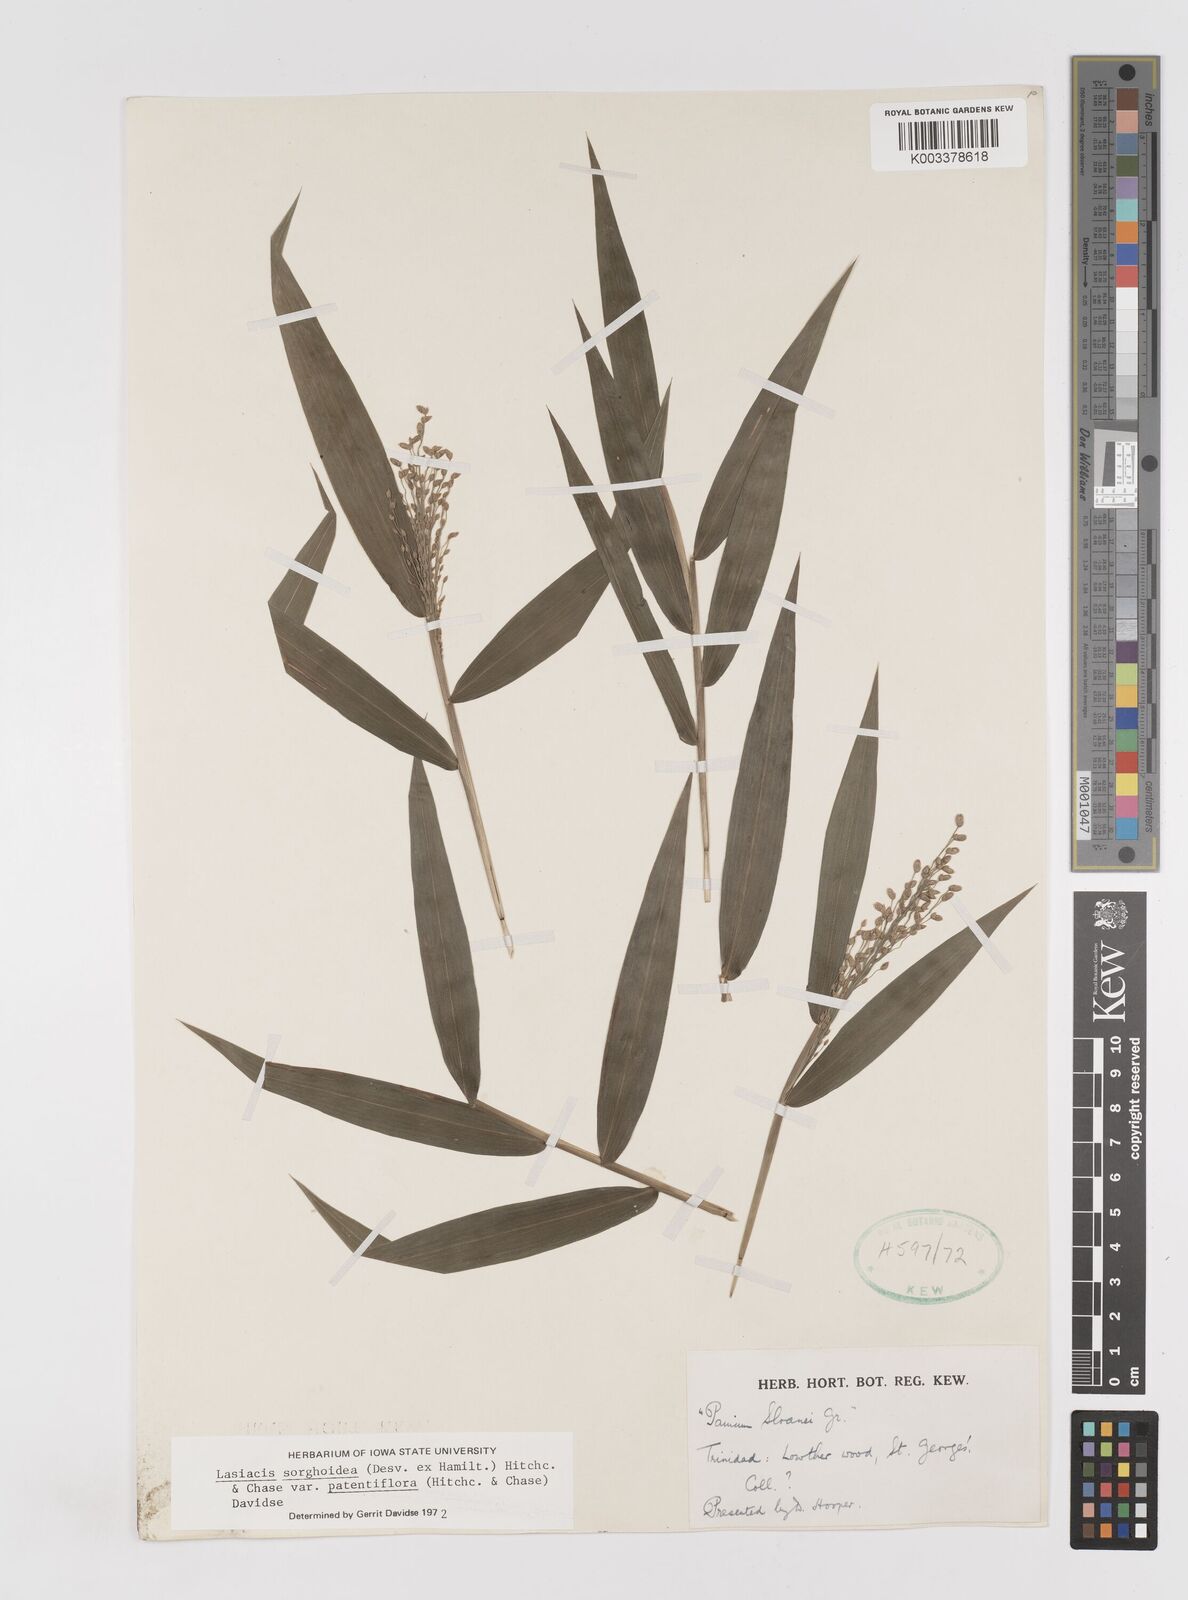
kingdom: Plantae
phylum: Tracheophyta
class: Liliopsida
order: Poales
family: Poaceae
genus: Lasiacis
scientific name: Lasiacis maculata
